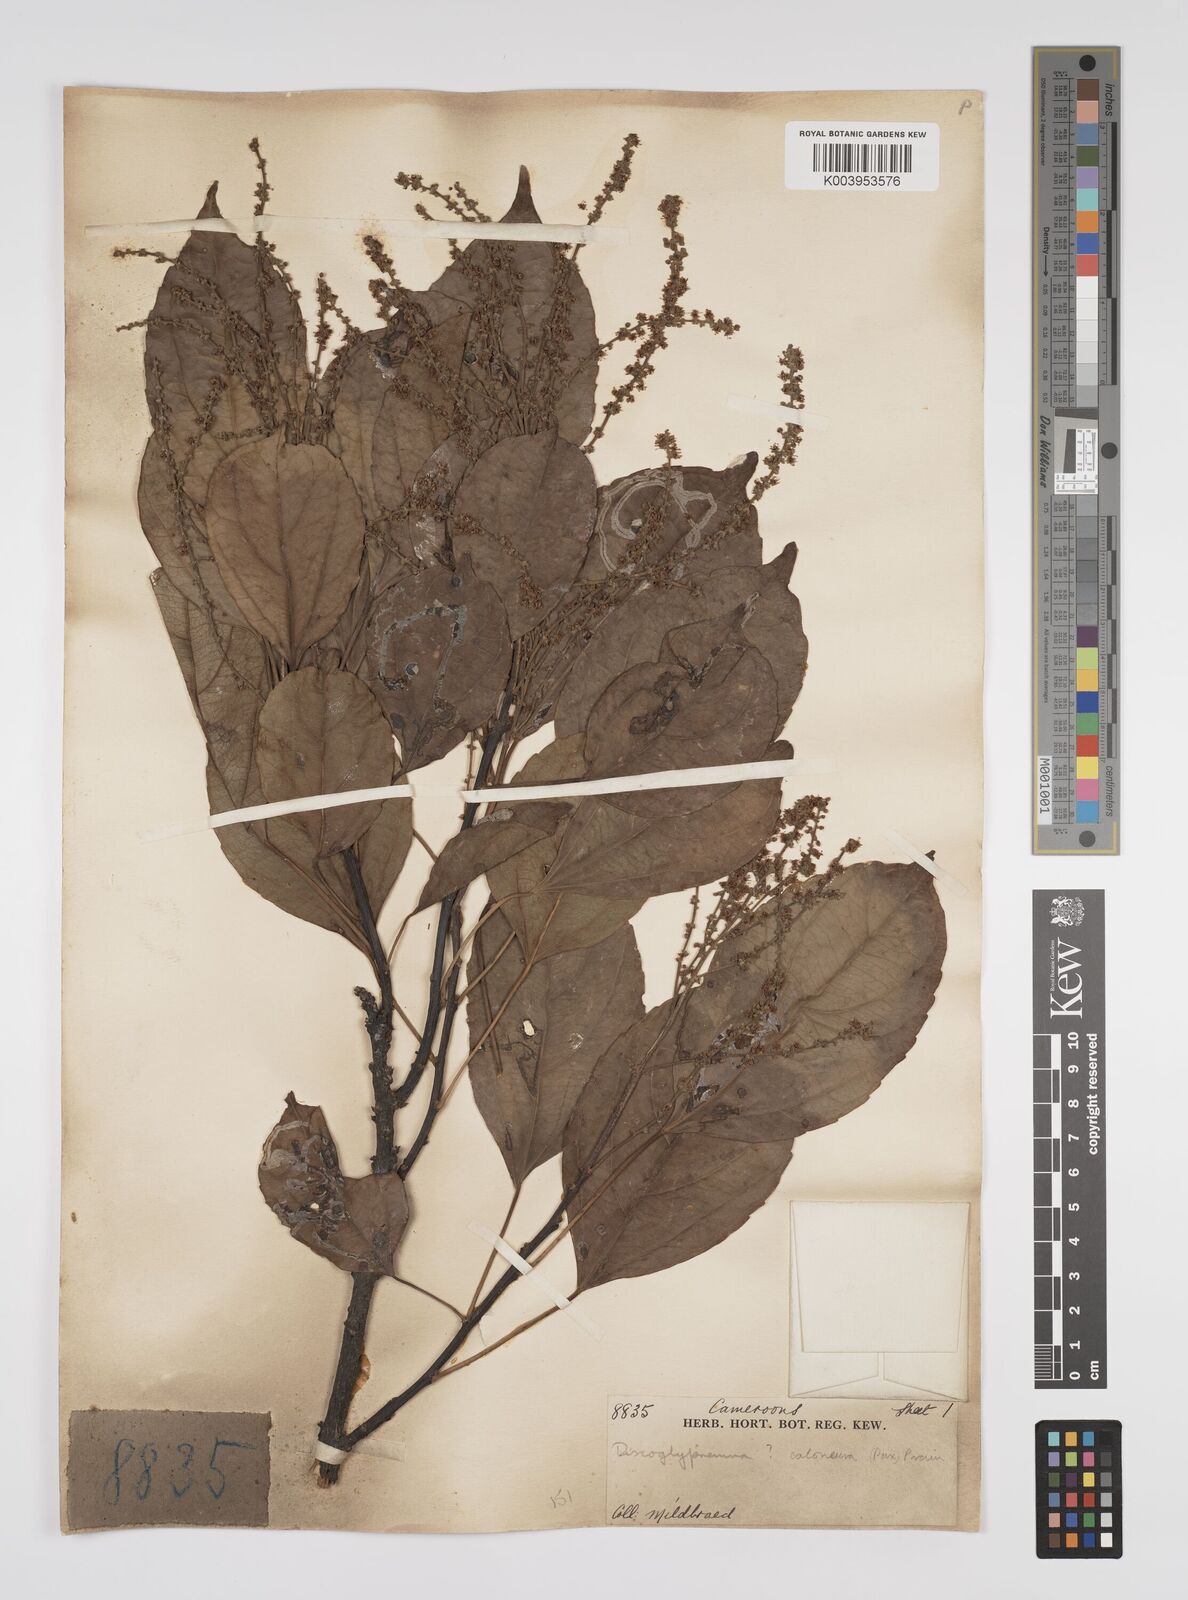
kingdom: Plantae
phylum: Tracheophyta
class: Magnoliopsida
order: Malpighiales
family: Euphorbiaceae
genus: Discoglypremna
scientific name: Discoglypremna caloneura
